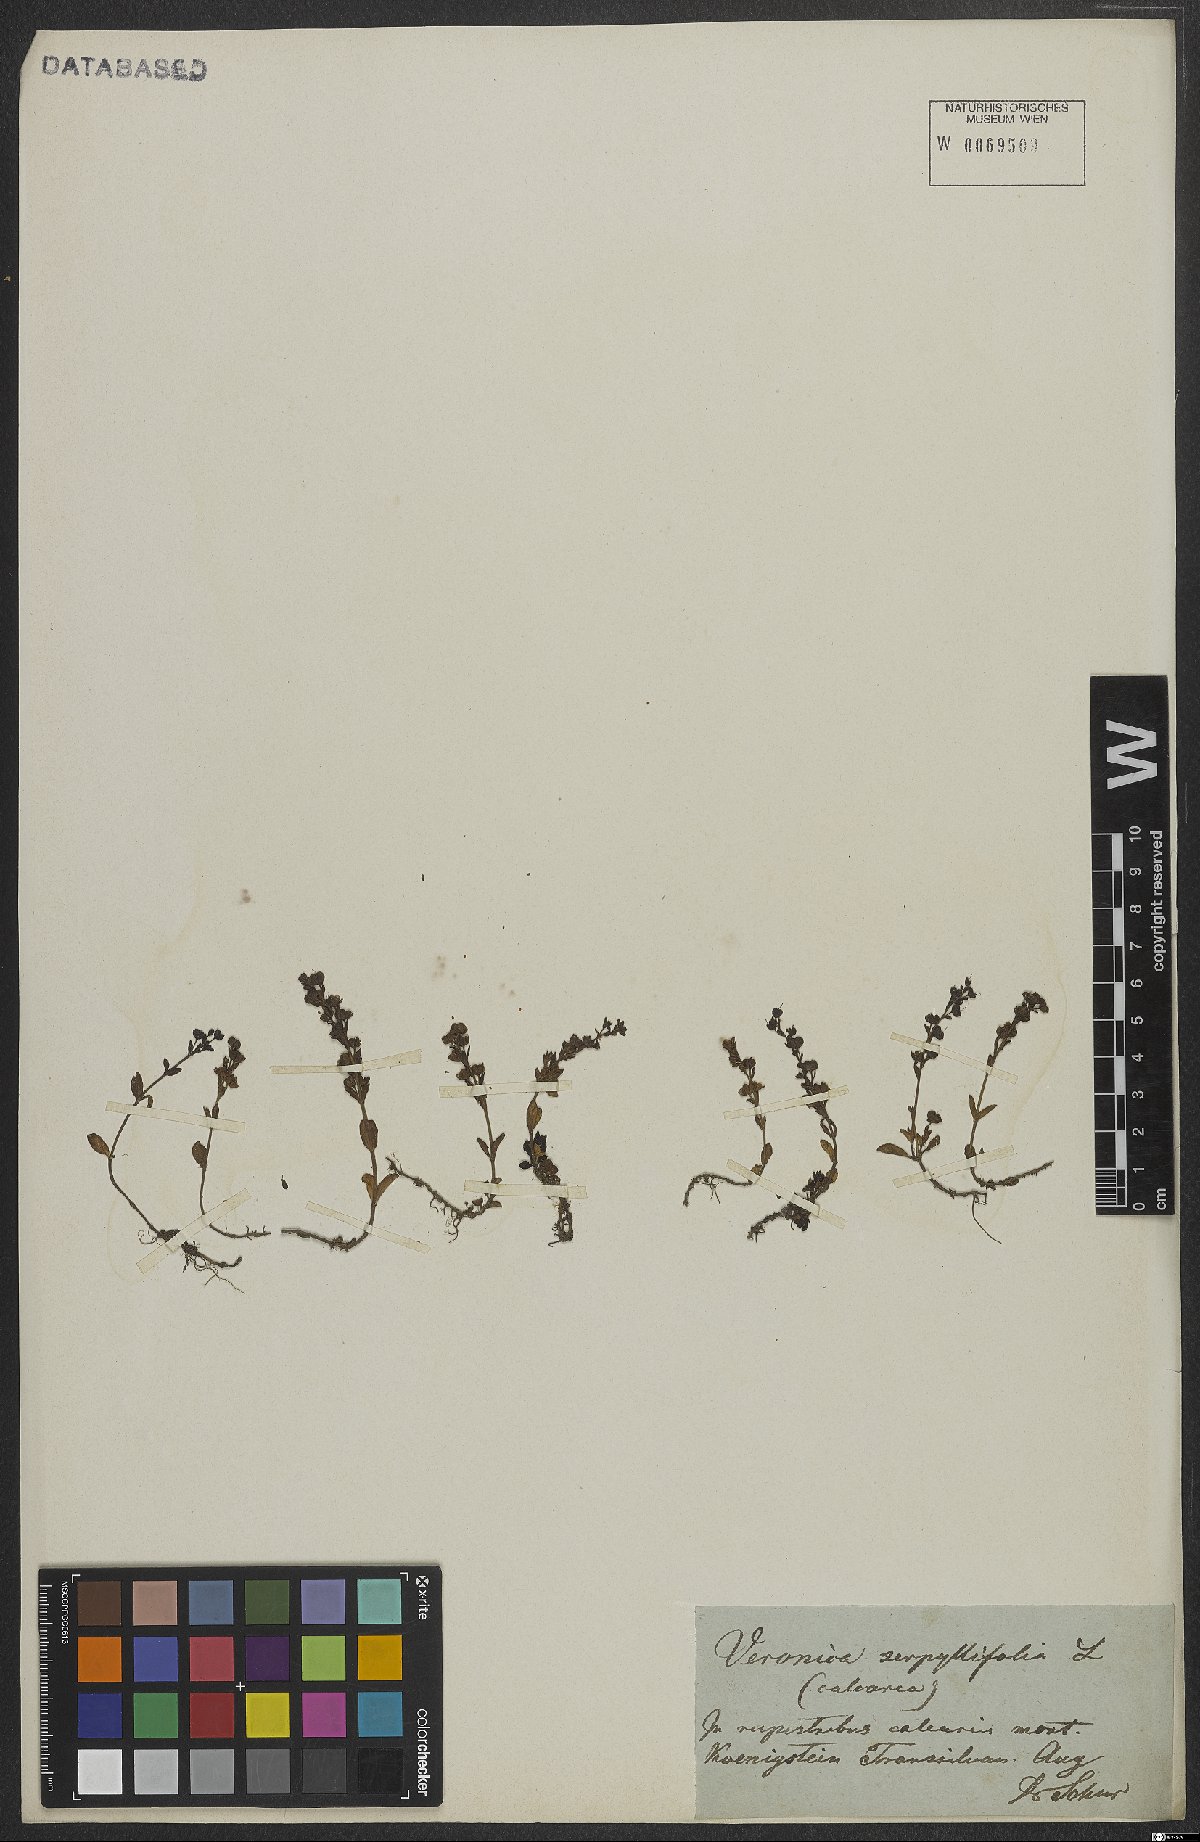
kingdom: Plantae
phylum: Tracheophyta
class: Magnoliopsida
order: Lamiales
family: Plantaginaceae
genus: Veronica
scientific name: Veronica serpyllifolia
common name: Thyme-leaved speedwell
